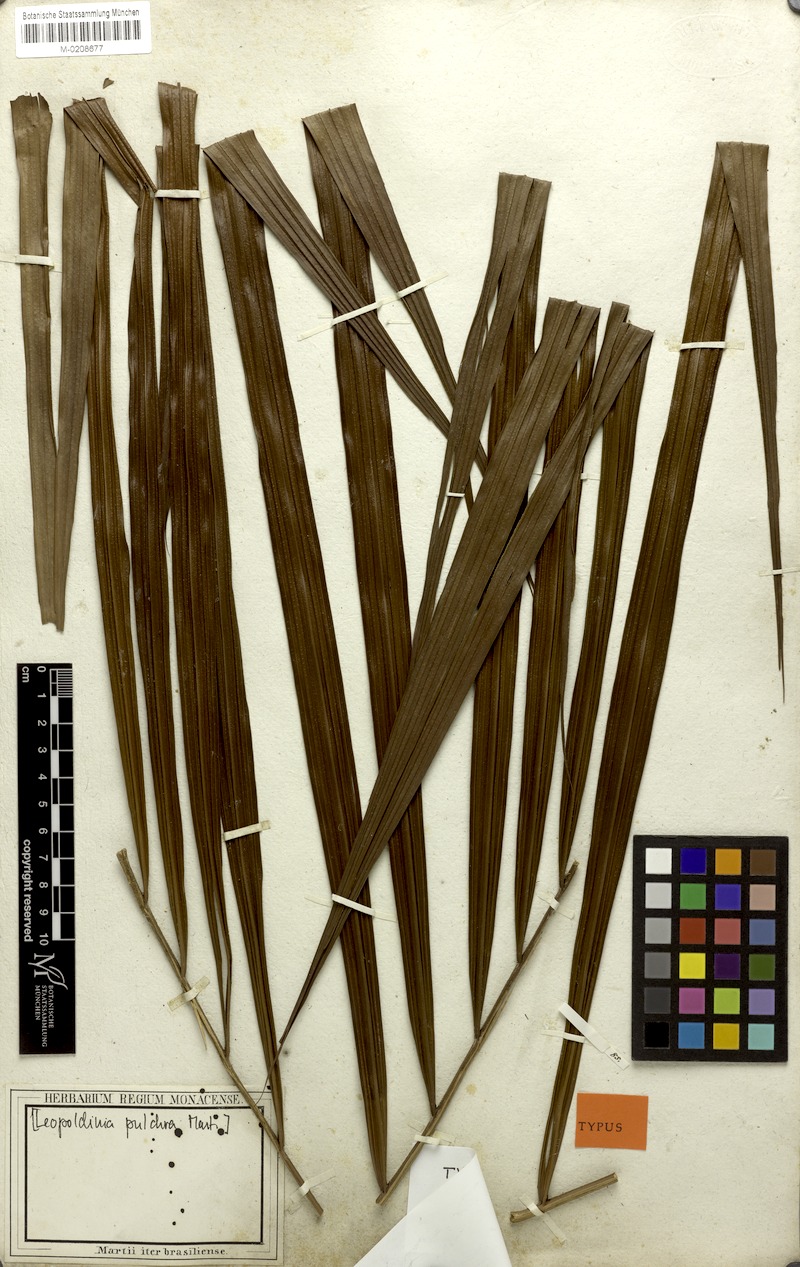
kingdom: Plantae
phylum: Tracheophyta
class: Liliopsida
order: Arecales
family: Arecaceae
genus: Leopoldinia
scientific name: Leopoldinia pulchra
